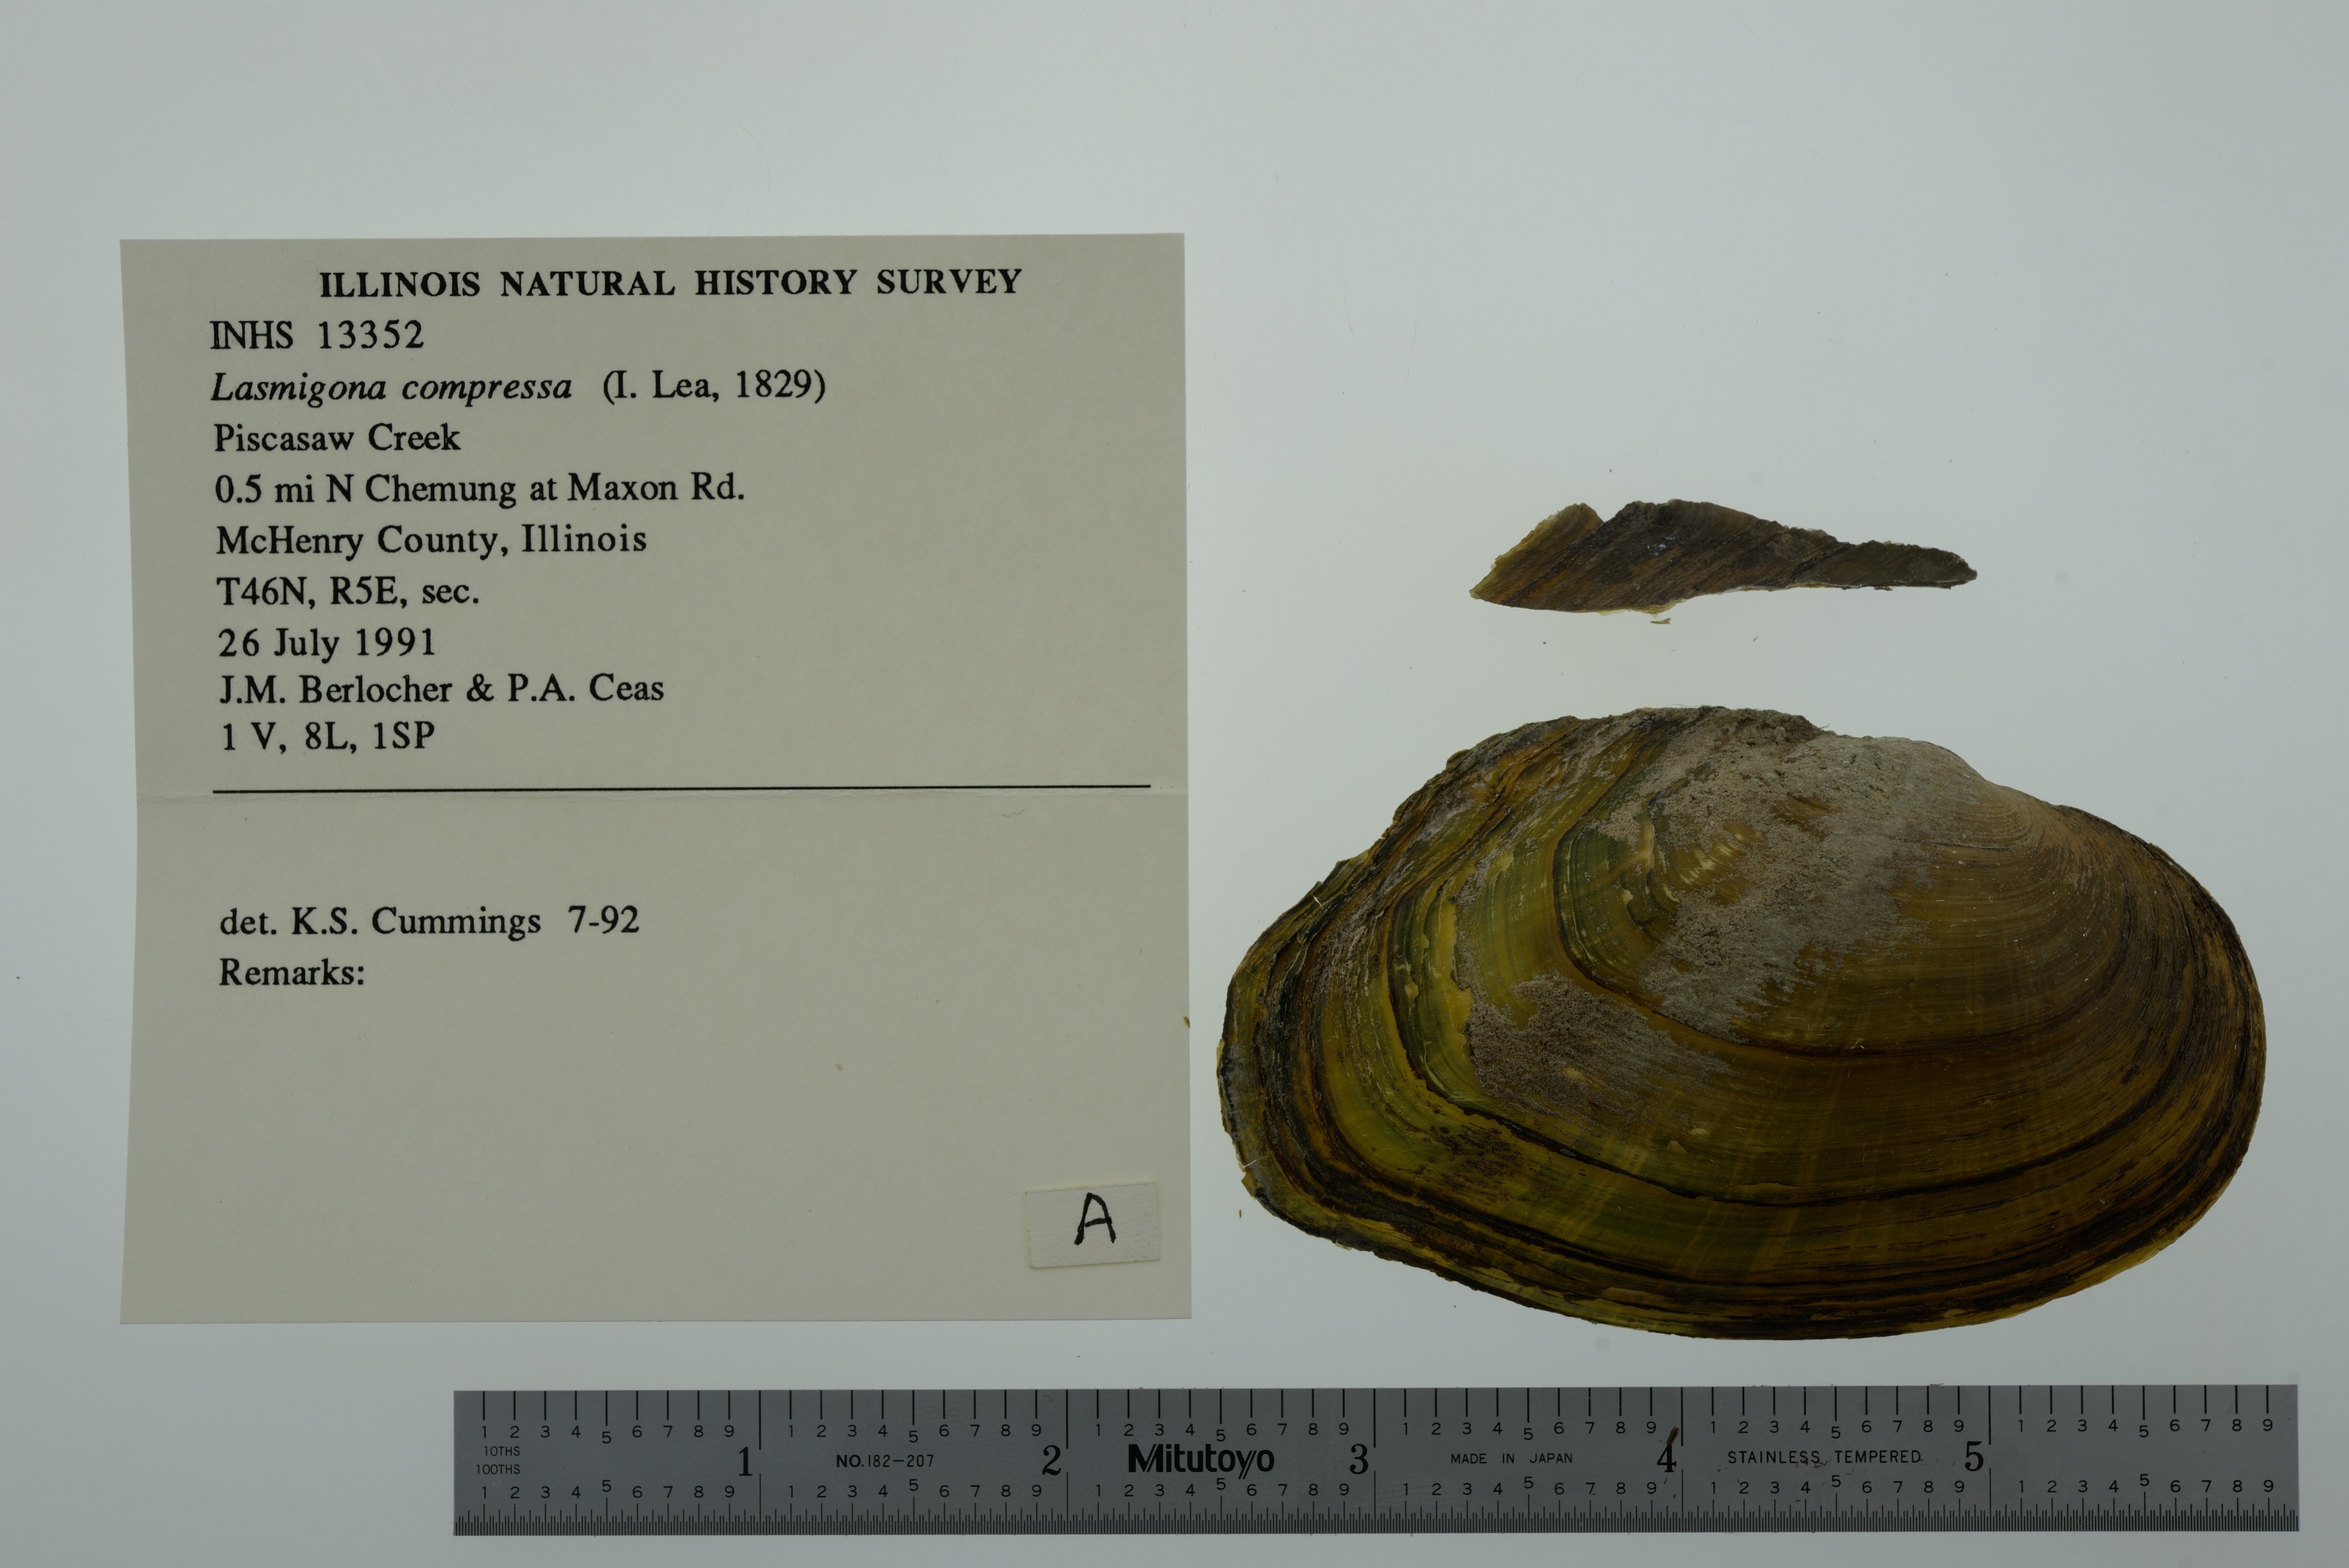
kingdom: Animalia
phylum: Mollusca
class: Bivalvia
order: Unionida
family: Unionidae
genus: Lasmigona
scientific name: Lasmigona compressa
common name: Creek heelsplitter
